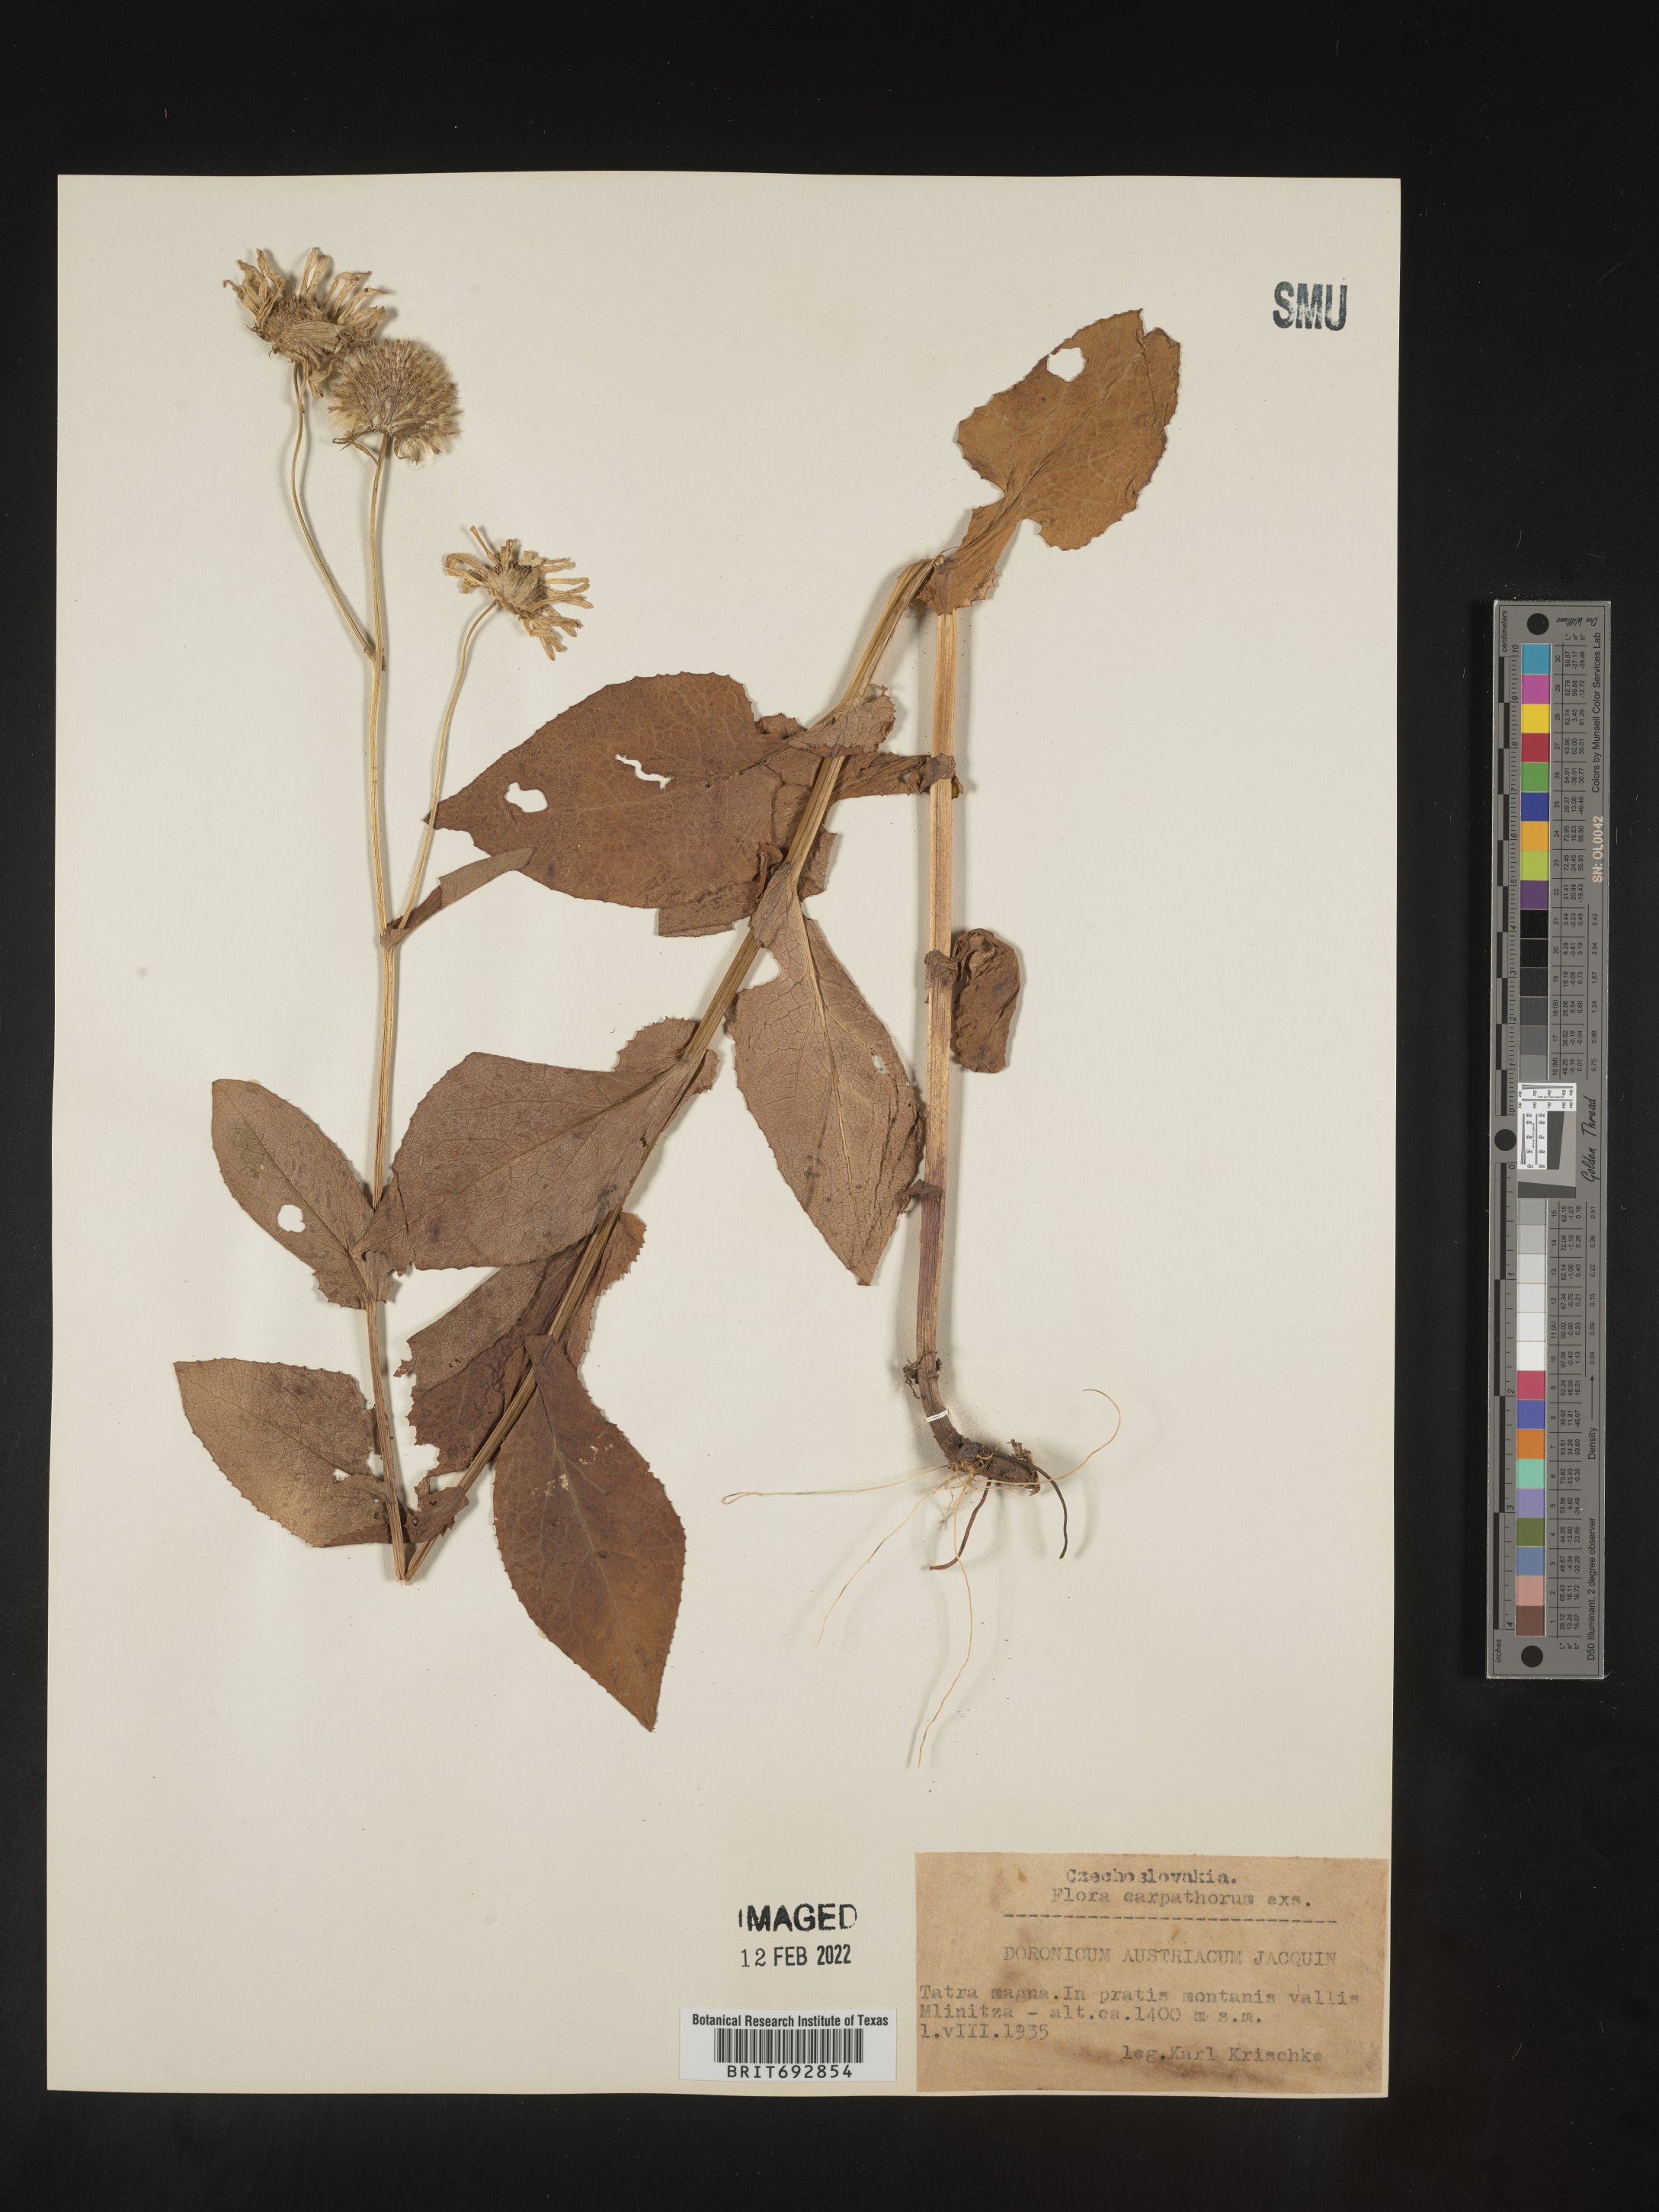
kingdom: Plantae
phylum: Tracheophyta
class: Magnoliopsida
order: Asterales
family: Asteraceae
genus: Doronicum
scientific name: Doronicum
